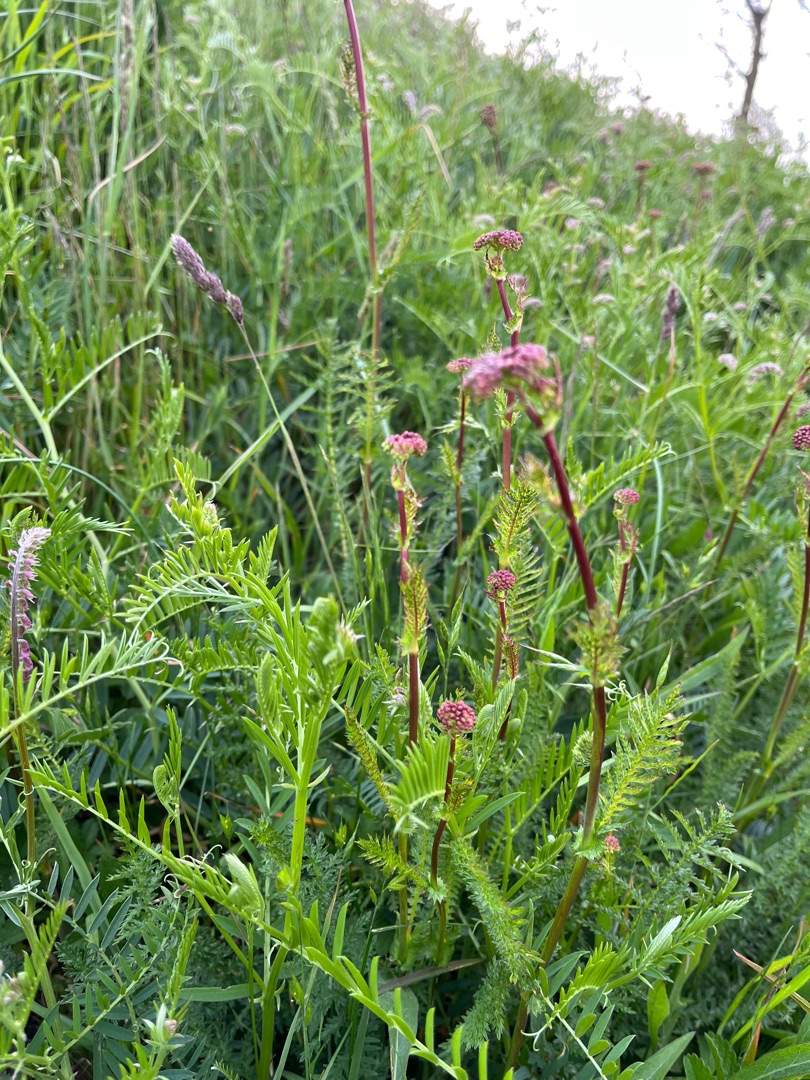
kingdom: Plantae
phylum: Tracheophyta
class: Magnoliopsida
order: Rosales
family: Rosaceae
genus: Filipendula
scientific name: Filipendula vulgaris
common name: Knoldet mjødurt
